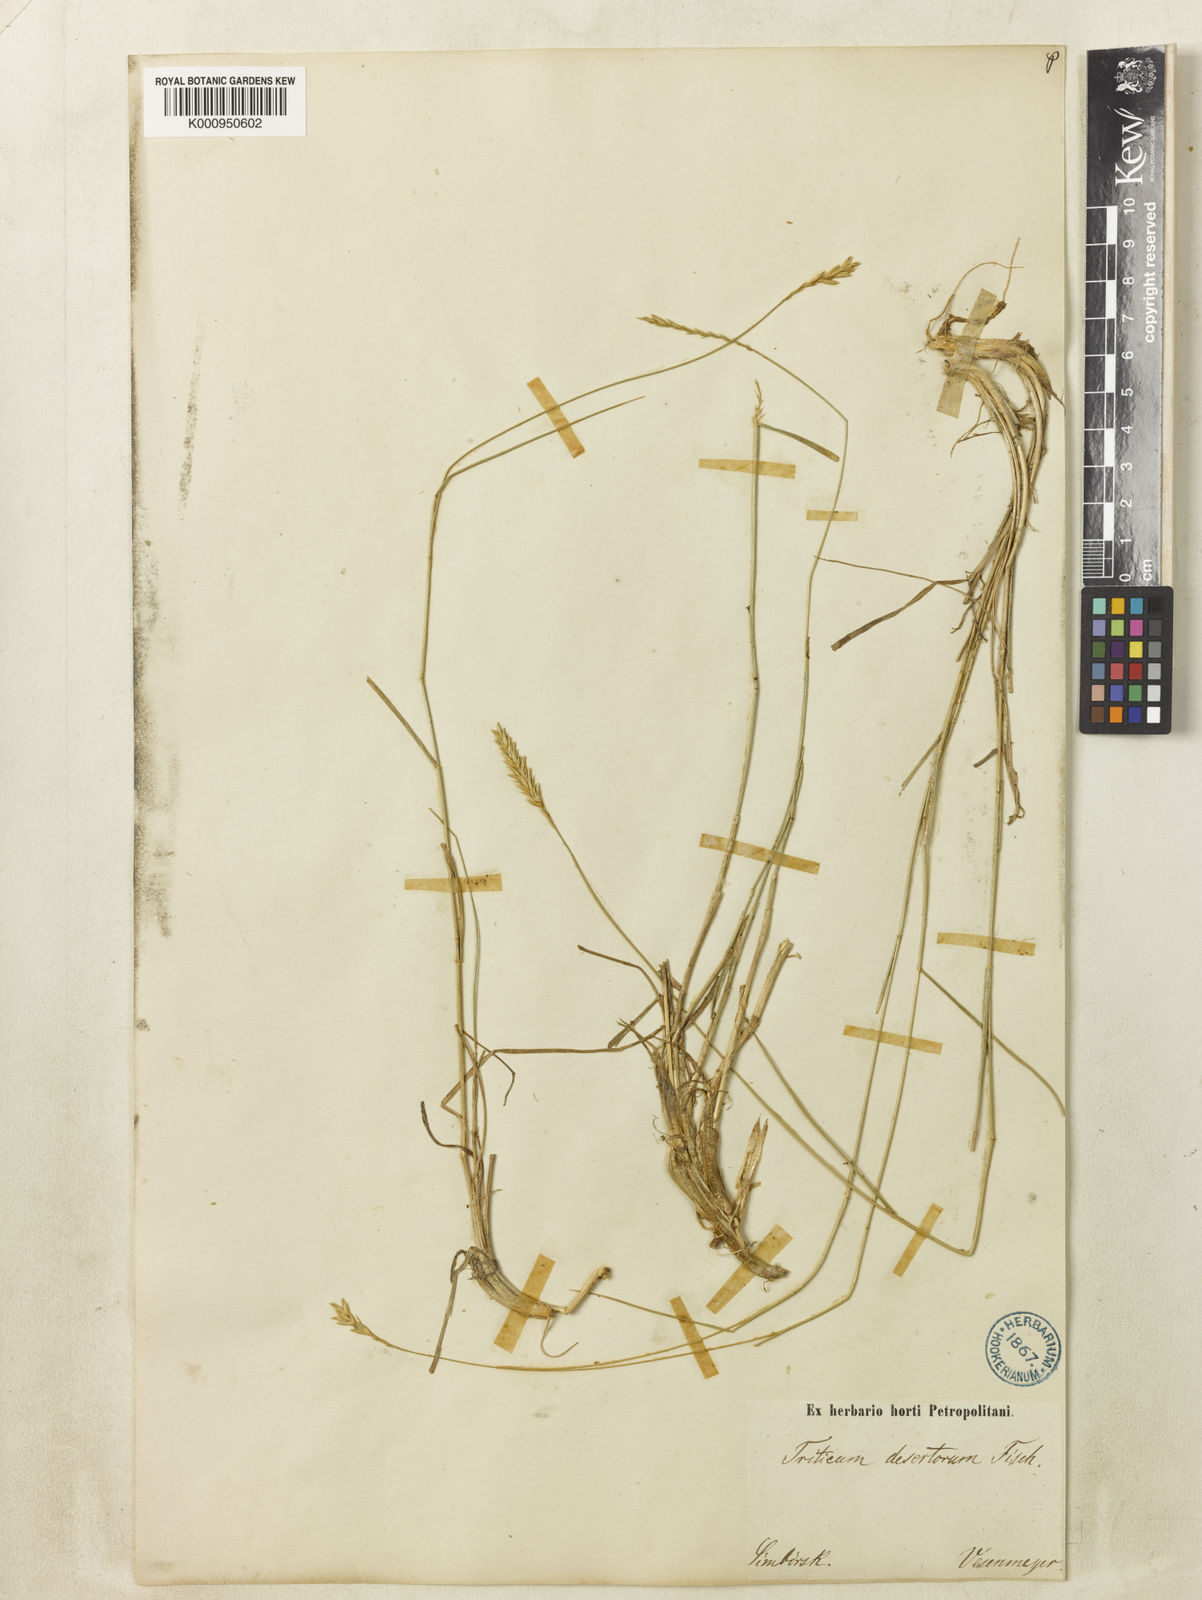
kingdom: Plantae
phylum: Tracheophyta
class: Liliopsida
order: Poales
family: Poaceae
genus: Agropyron
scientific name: Agropyron desertorum
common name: Desert wheatgrass
